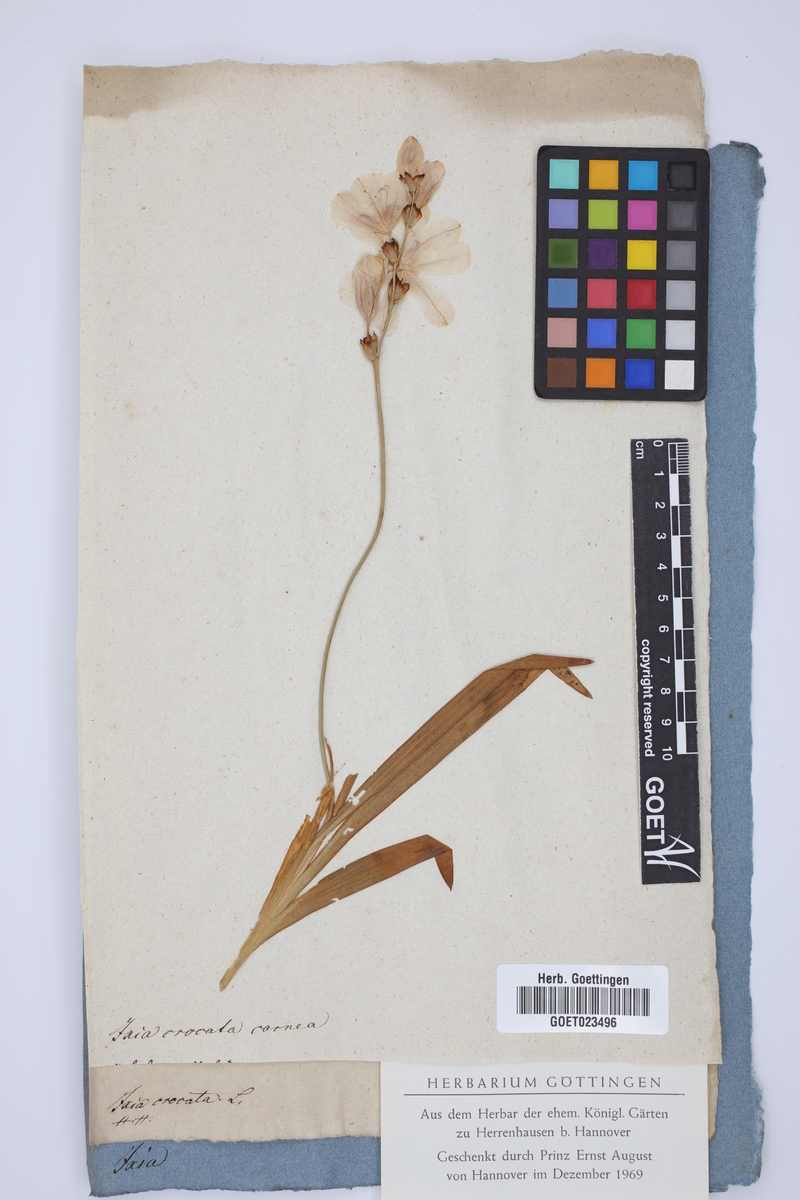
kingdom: Plantae
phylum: Tracheophyta
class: Liliopsida
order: Asparagales
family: Iridaceae
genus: Tritonia
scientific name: Tritonia crocata
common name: Flame-freesia
